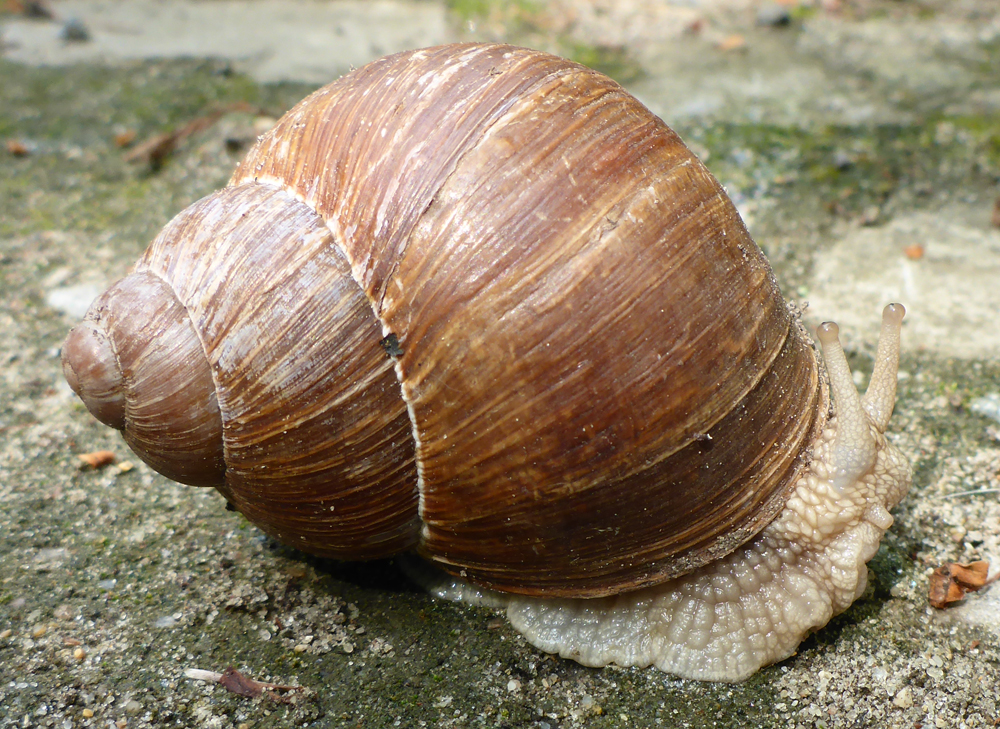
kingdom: Animalia
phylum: Mollusca
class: Gastropoda
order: Stylommatophora
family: Helicidae
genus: Helix
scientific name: Helix pomatia
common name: Roman snail
